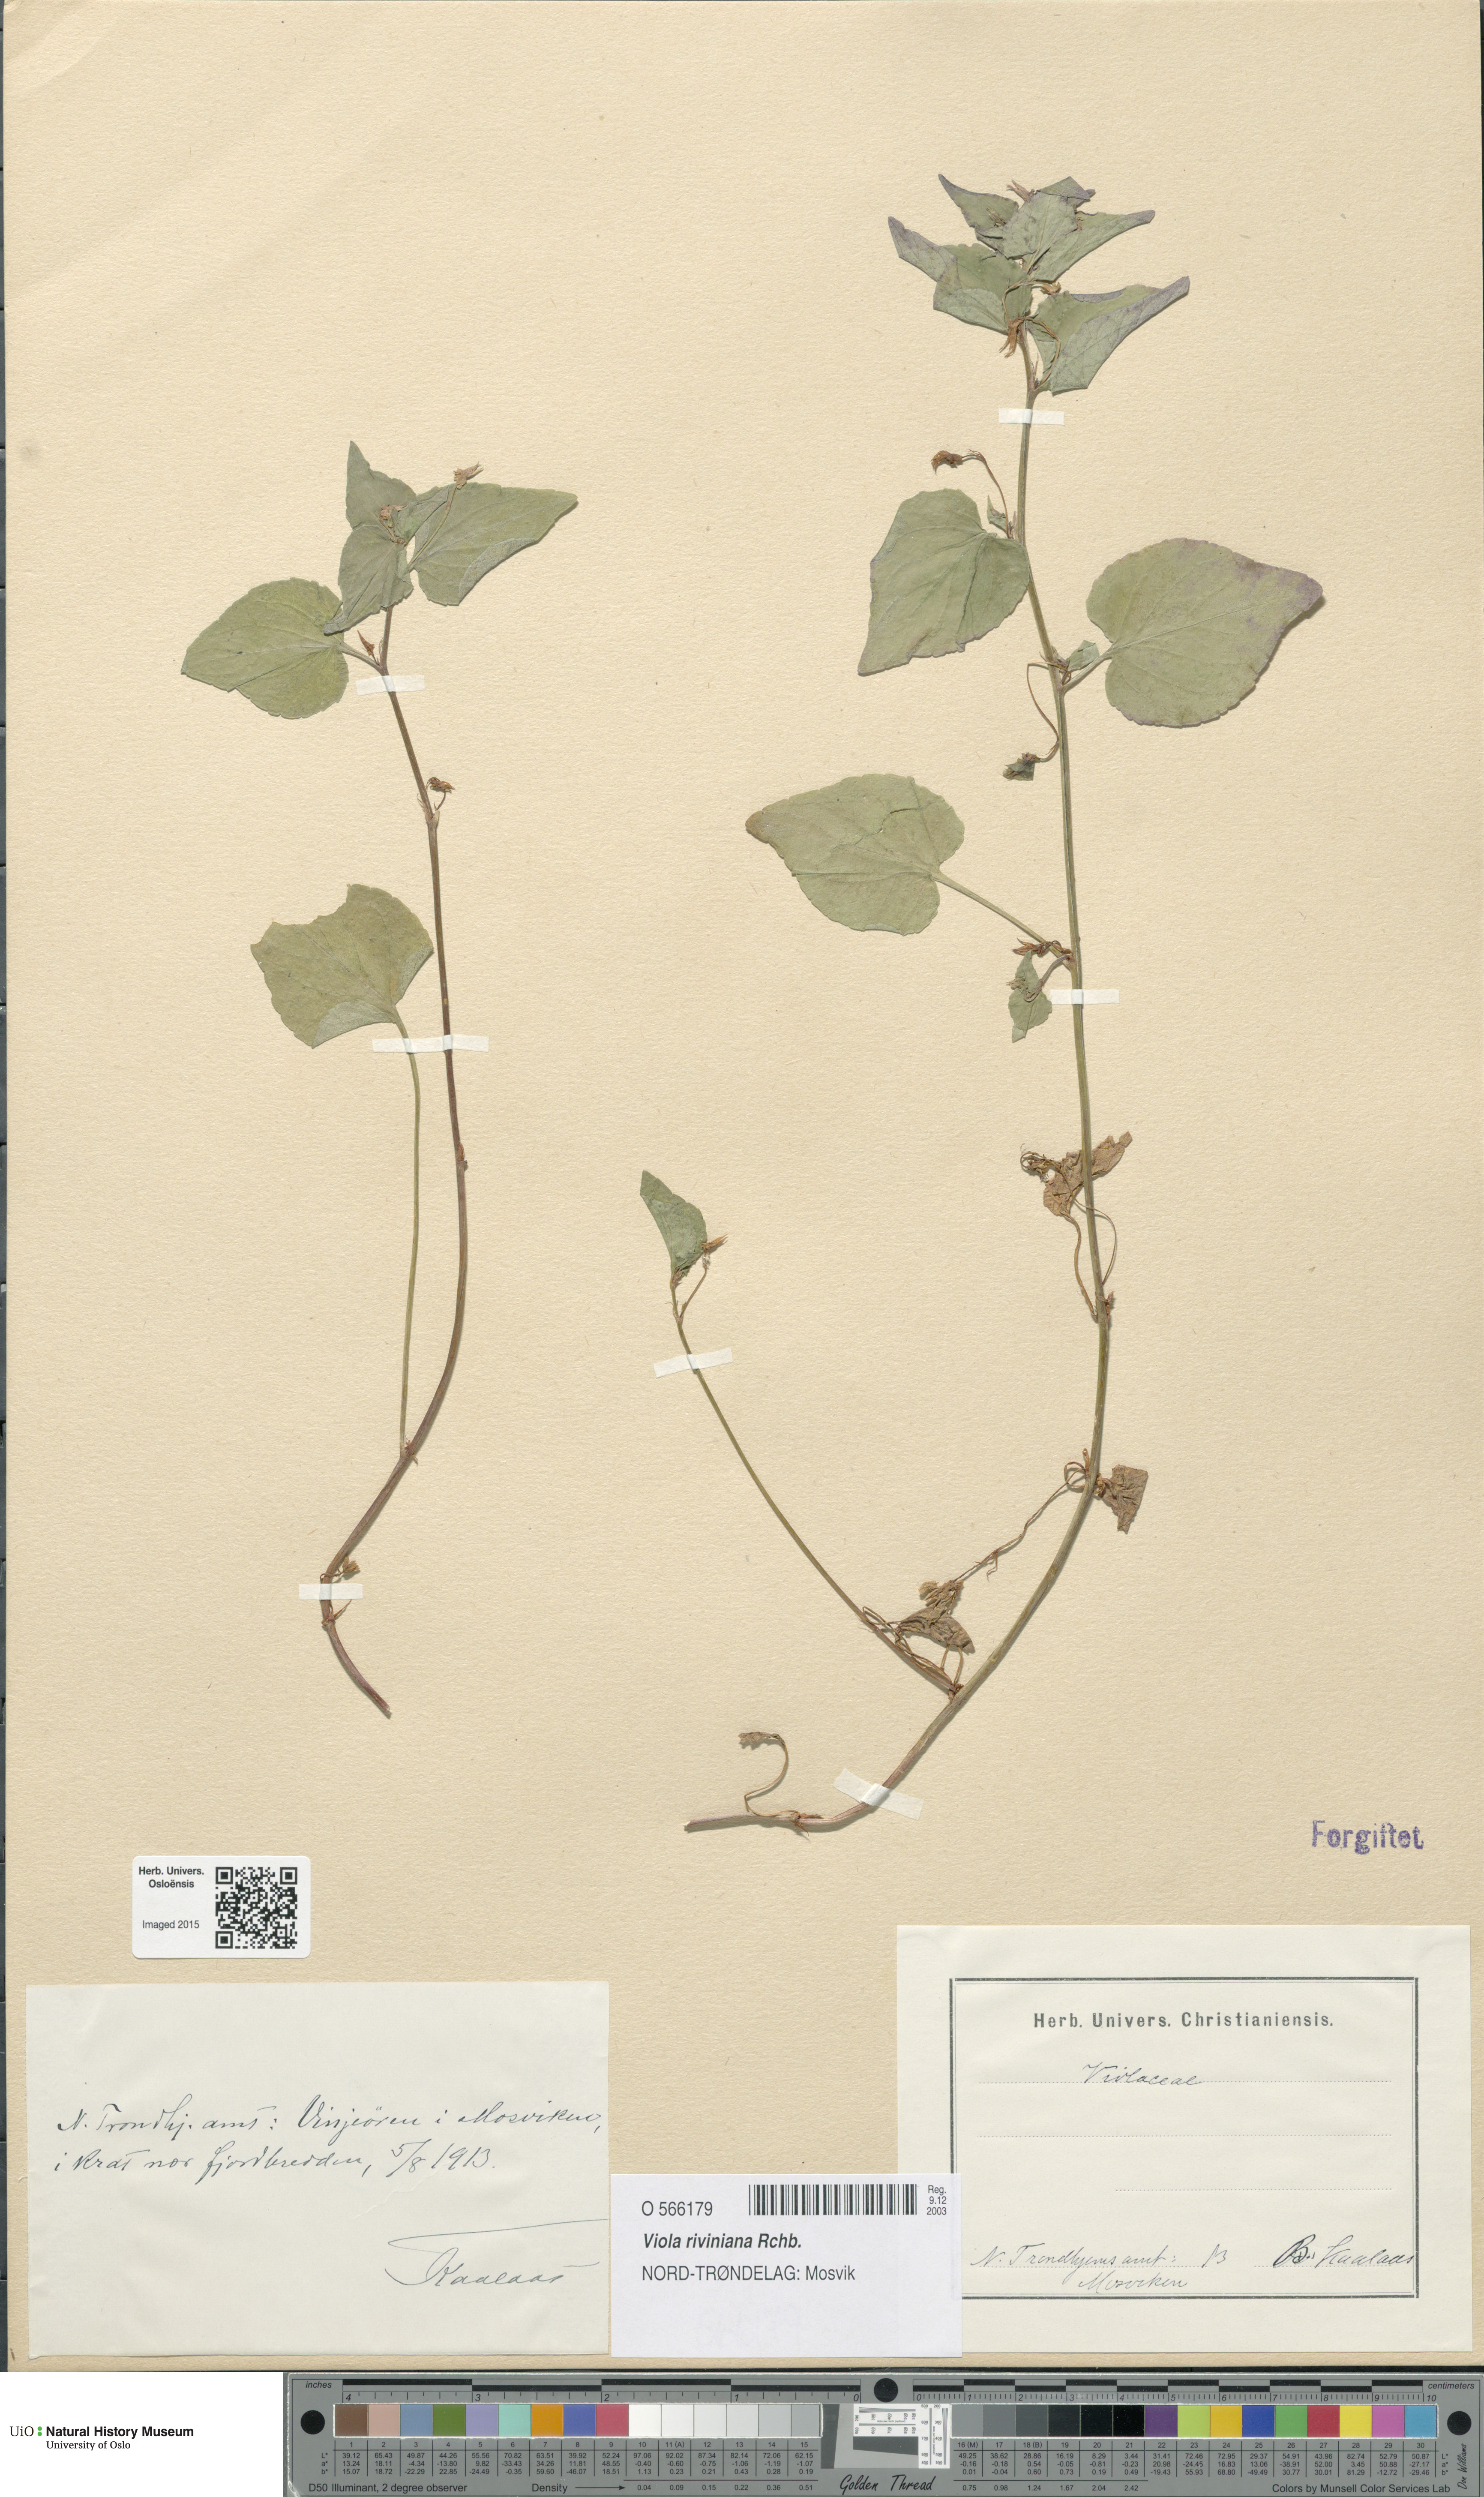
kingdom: Plantae
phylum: Tracheophyta
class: Magnoliopsida
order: Malpighiales
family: Violaceae
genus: Viola
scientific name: Viola riviniana
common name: Common dog-violet
